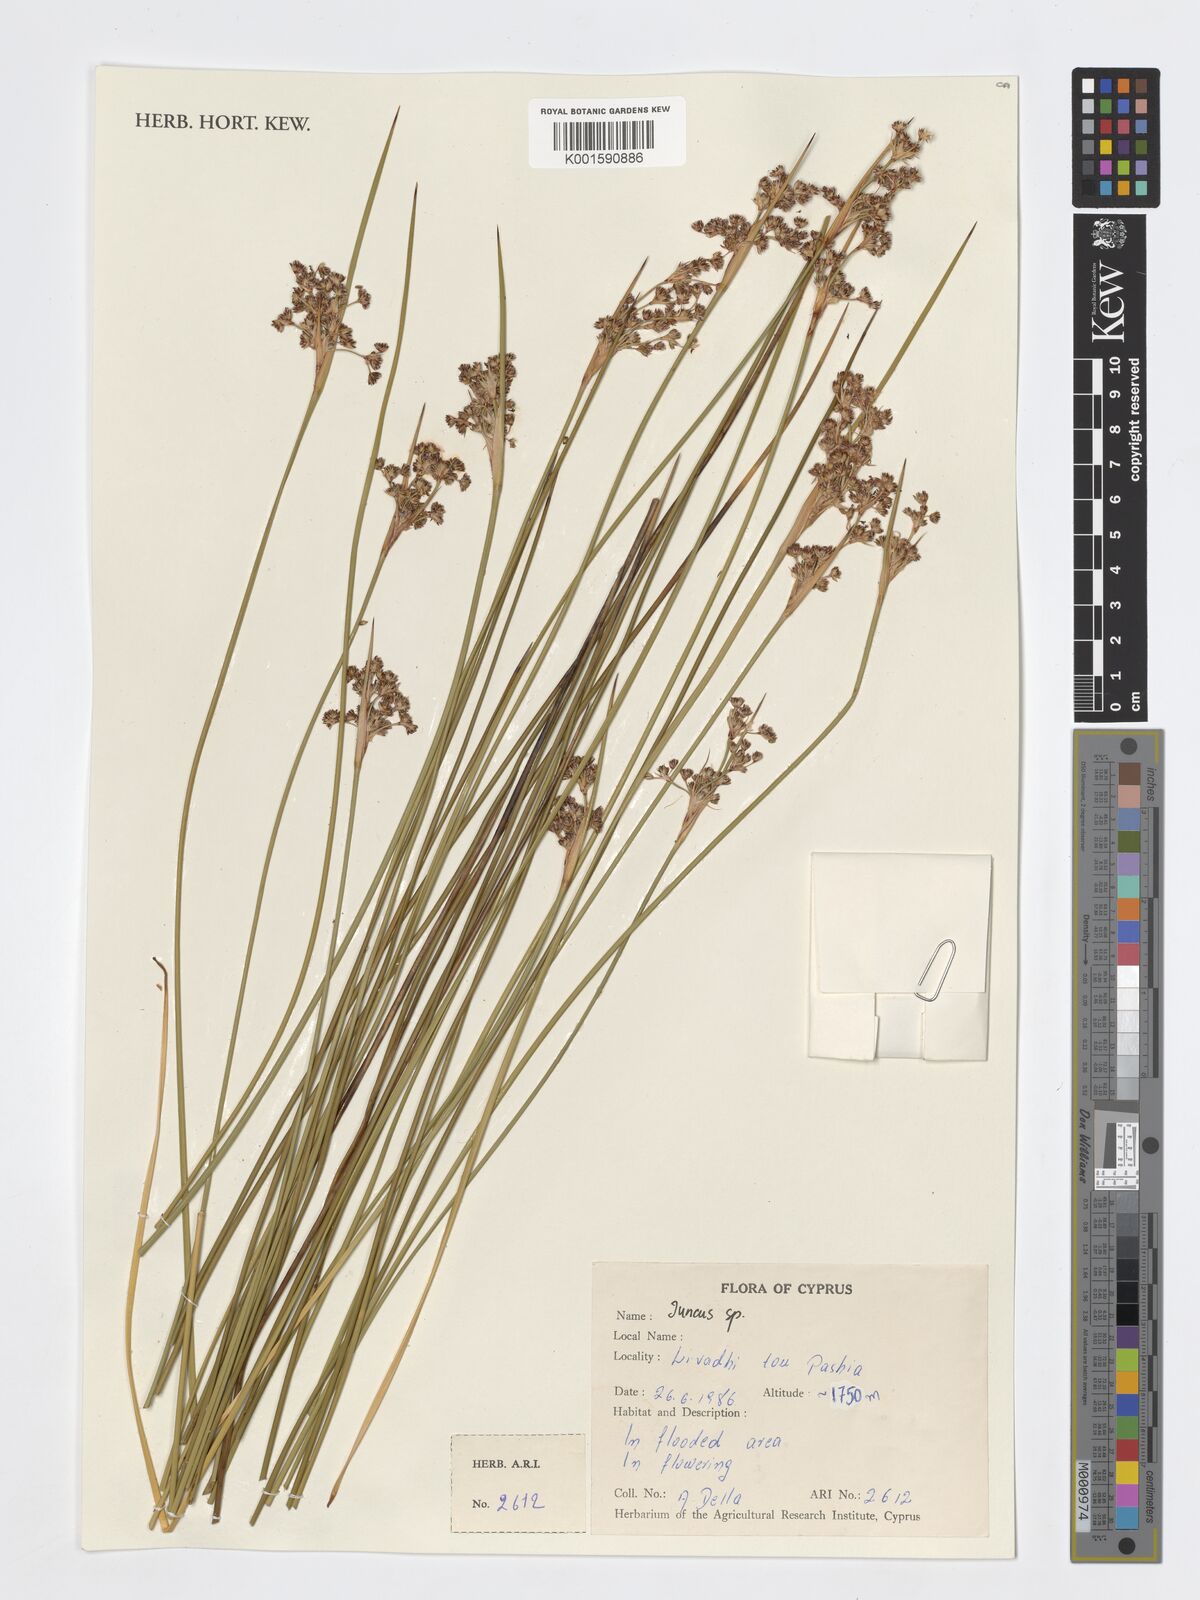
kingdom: Plantae
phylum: Tracheophyta
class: Liliopsida
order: Poales
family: Juncaceae
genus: Juncus
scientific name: Juncus
